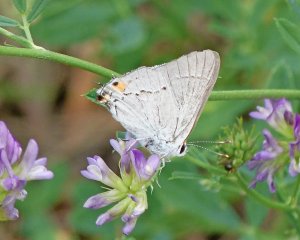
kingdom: Animalia
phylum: Arthropoda
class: Insecta
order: Lepidoptera
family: Lycaenidae
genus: Strymon
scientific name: Strymon melinus
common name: Gray Hairstreak
